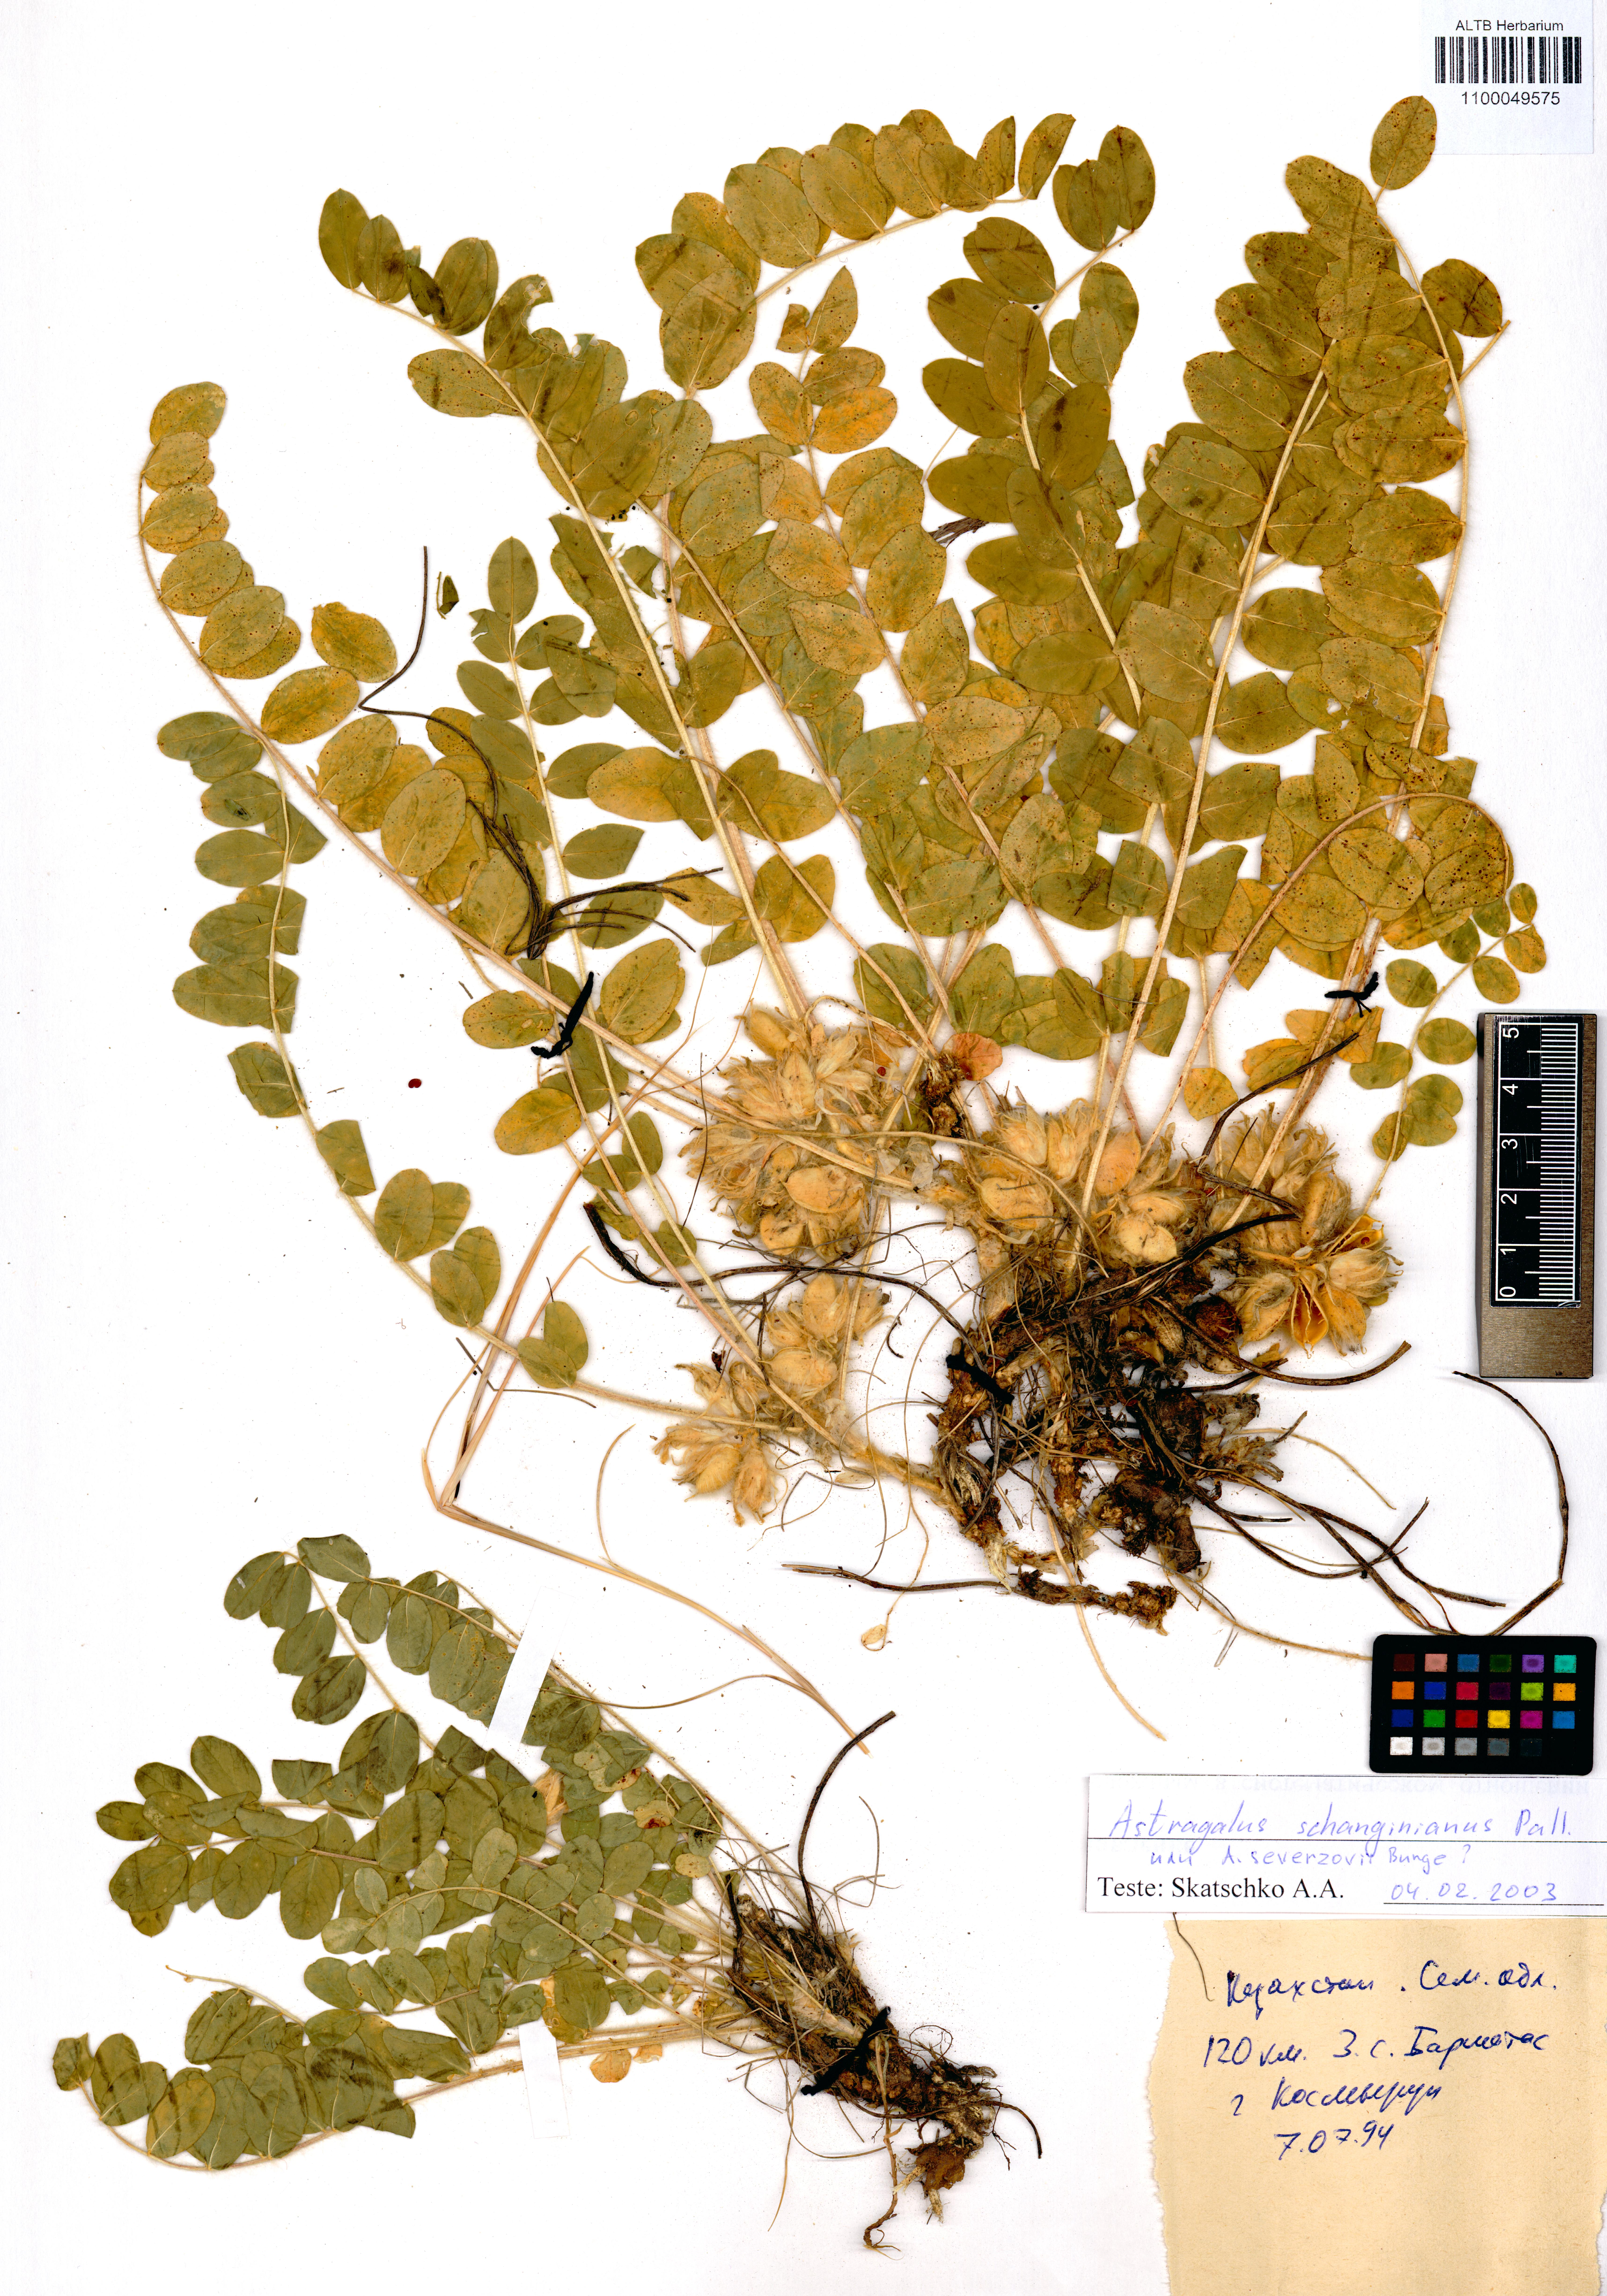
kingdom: Plantae
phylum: Tracheophyta
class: Magnoliopsida
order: Fabales
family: Fabaceae
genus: Astragalus
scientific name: Astragalus schanginianus
